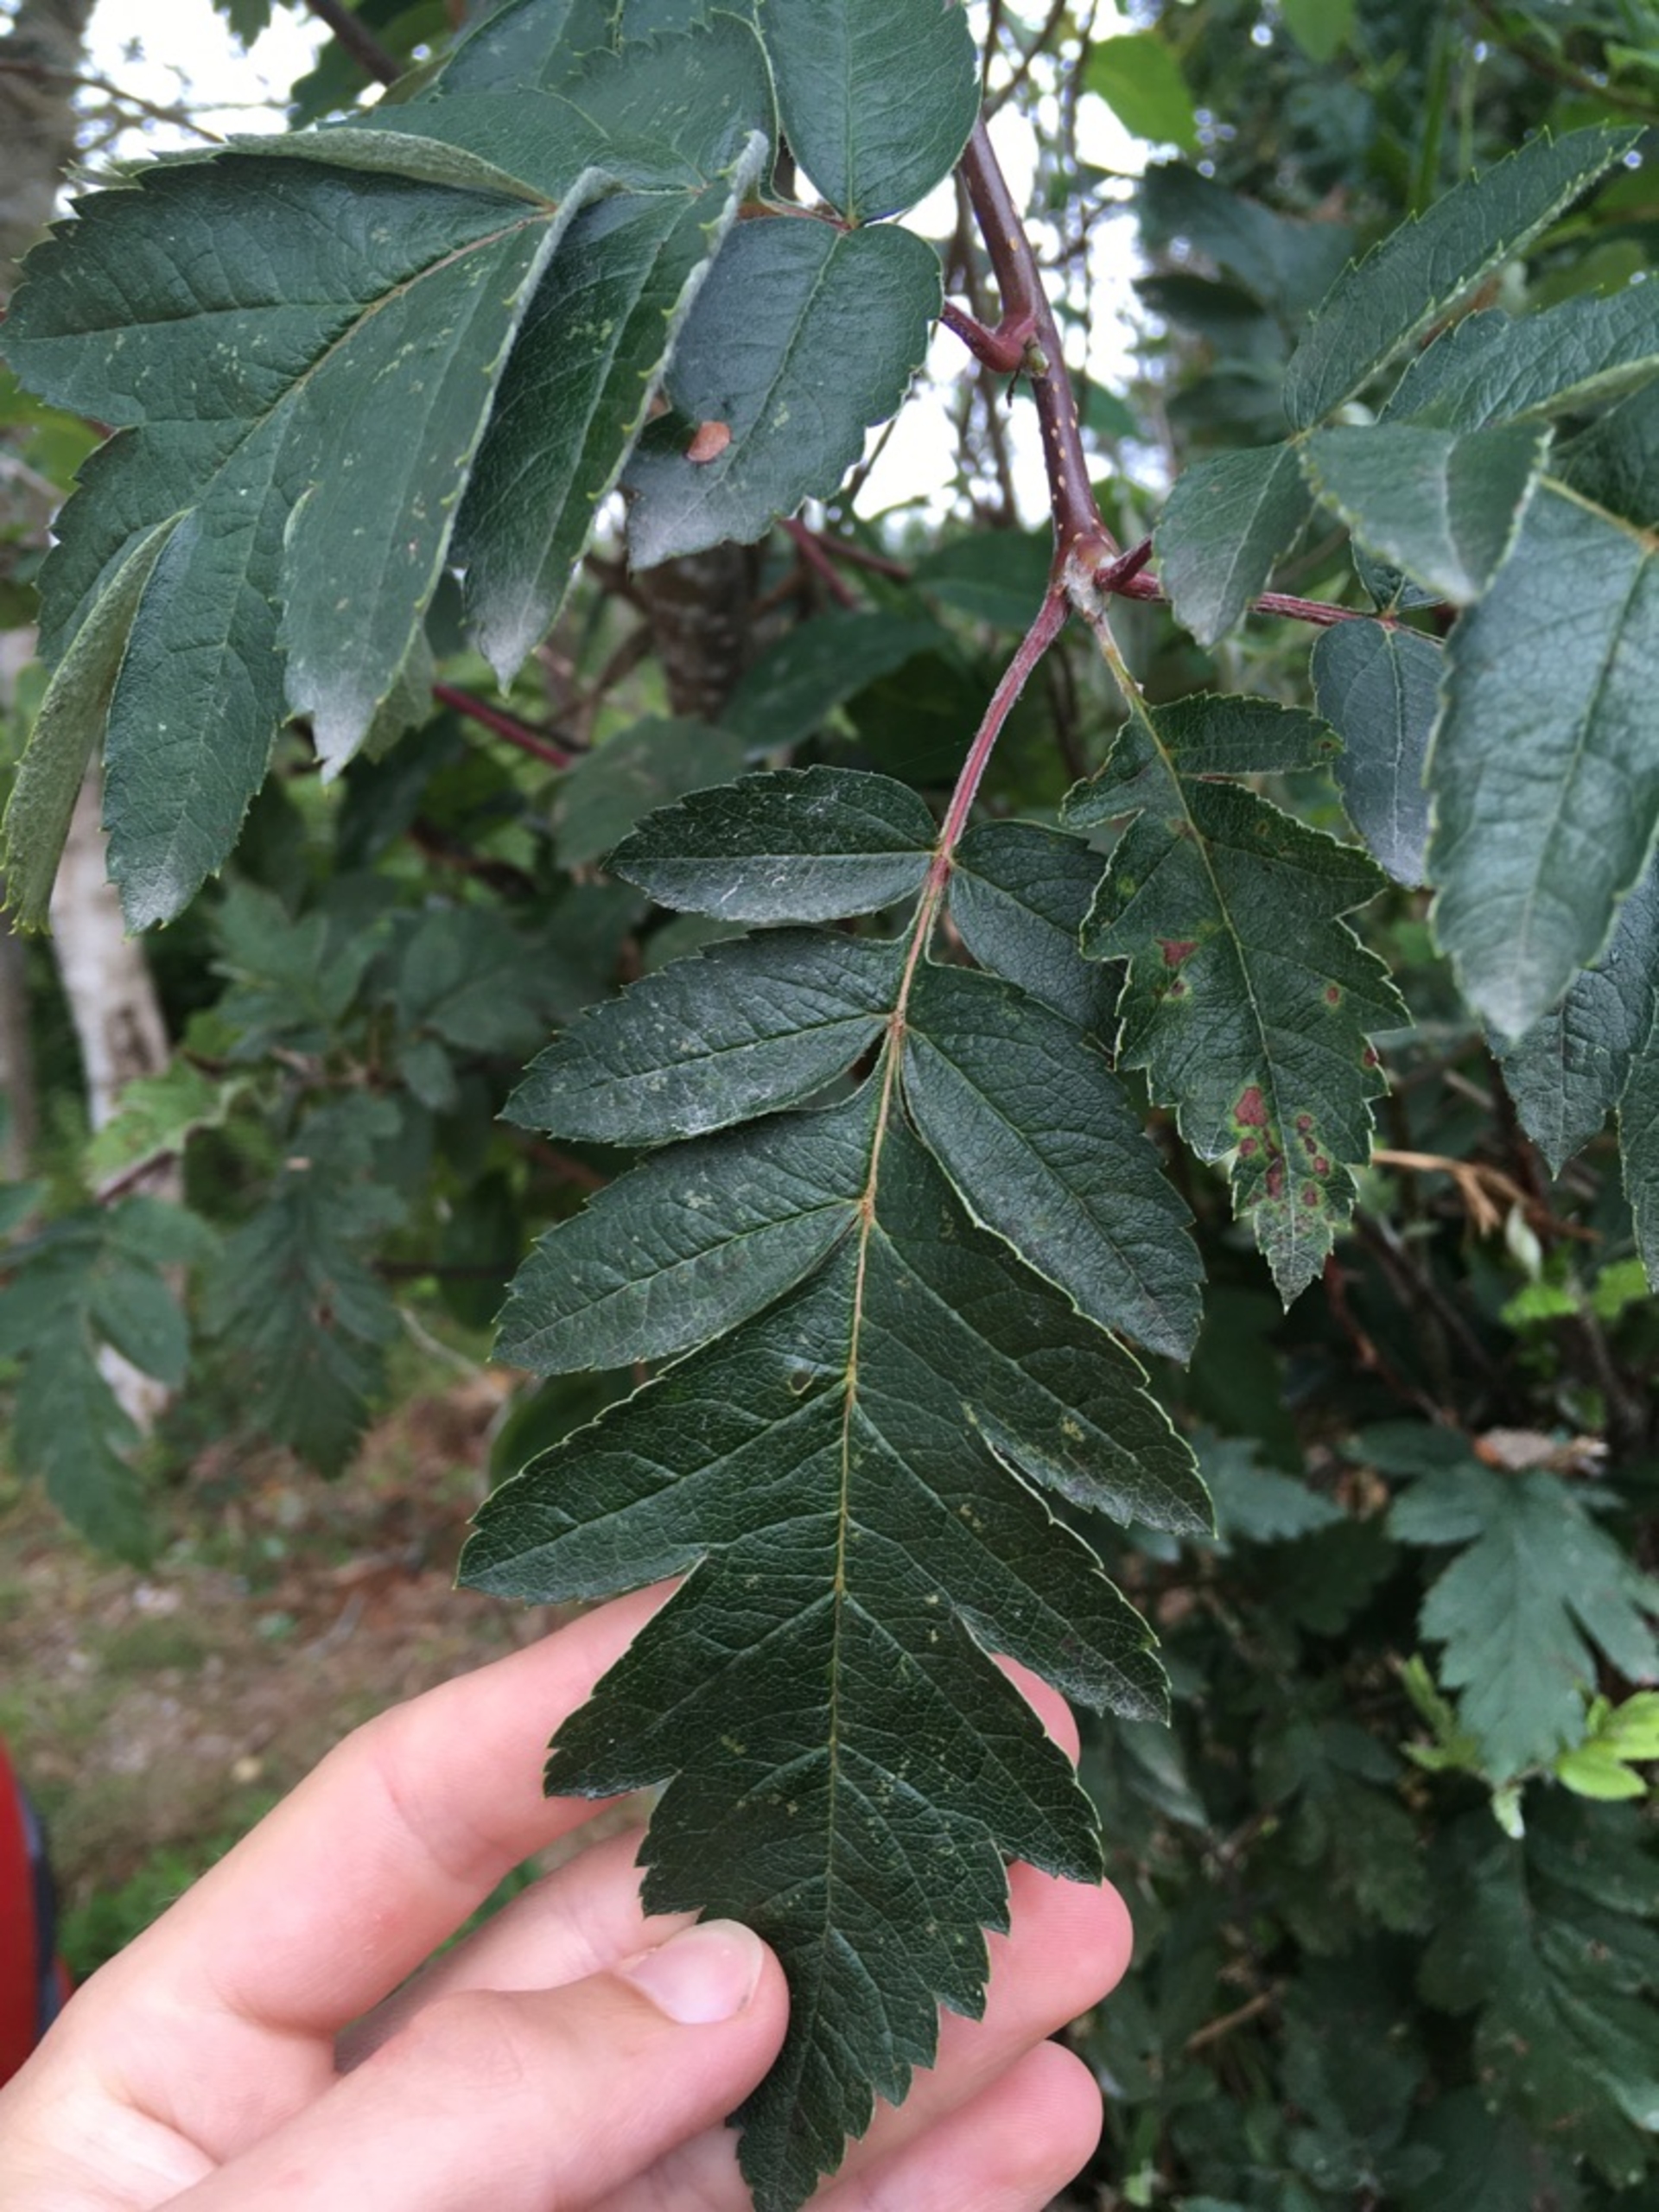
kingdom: Plantae
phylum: Tracheophyta
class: Magnoliopsida
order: Rosales
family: Rosaceae
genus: Hedlundia
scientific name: Hedlundia hybrida
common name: Finsk røn
